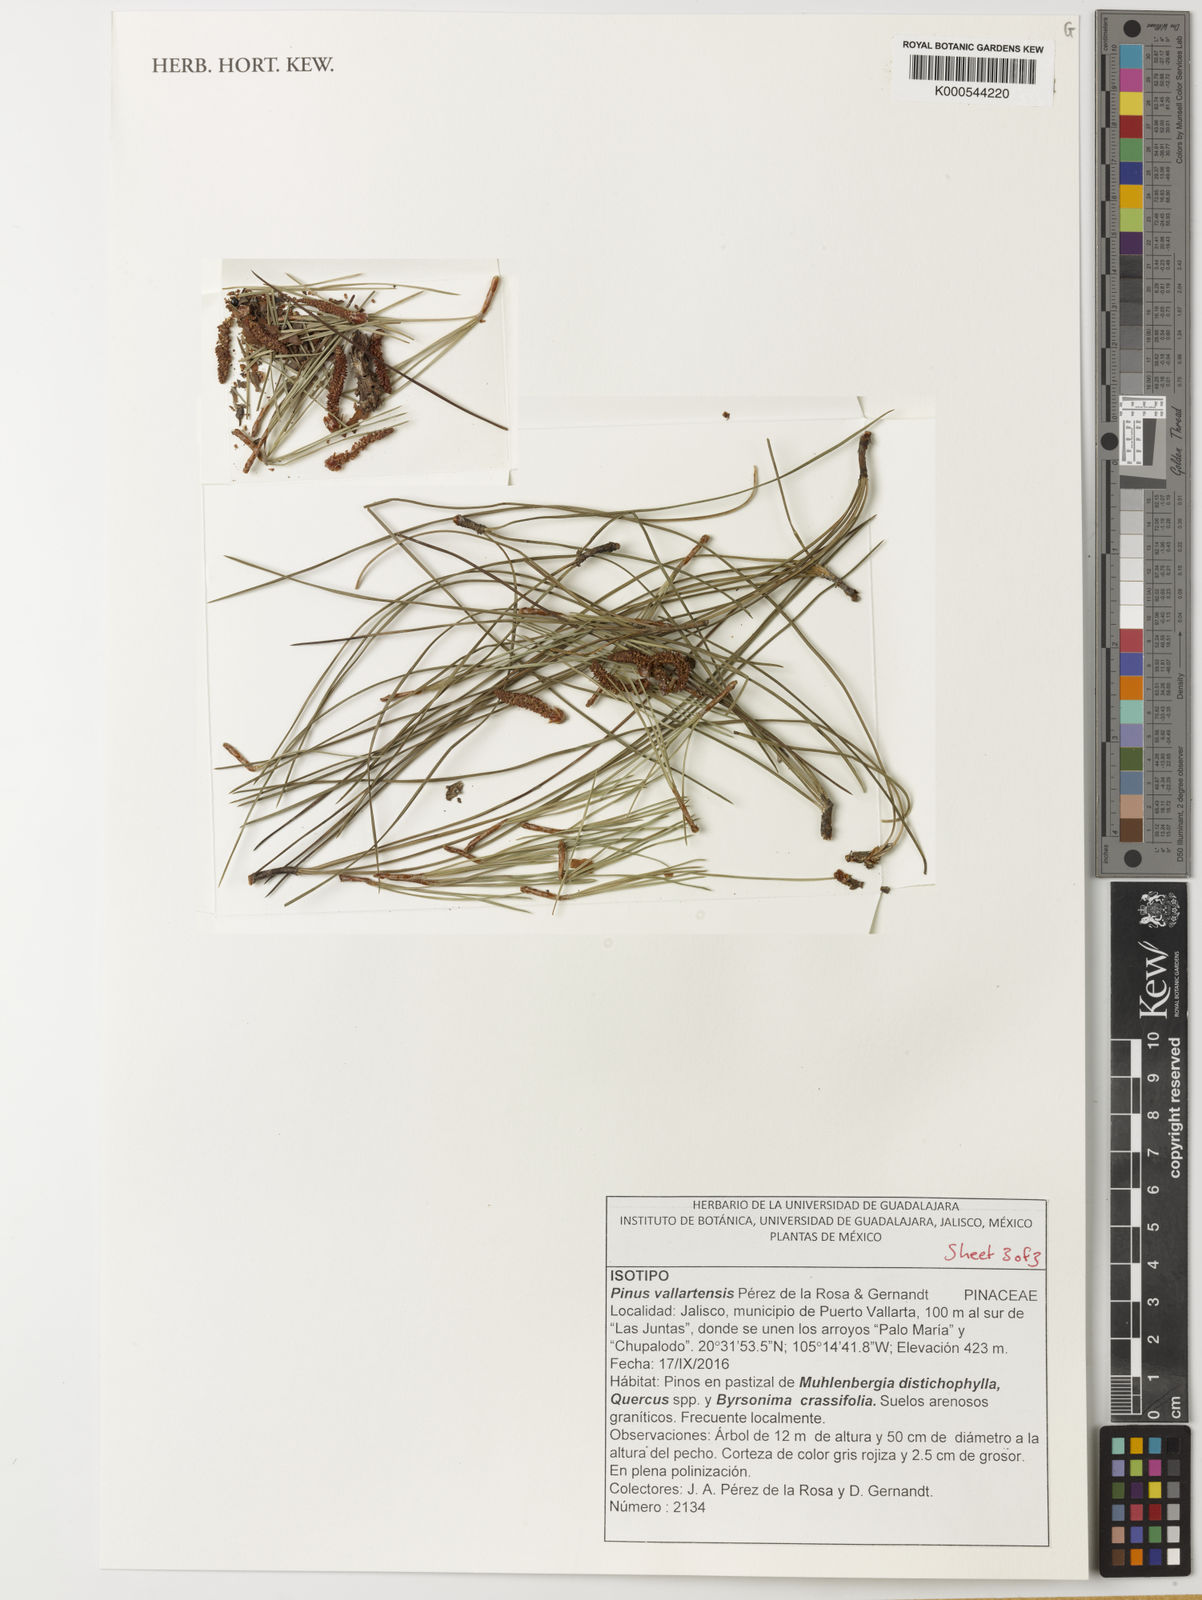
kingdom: Plantae
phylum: Tracheophyta
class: Pinopsida
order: Pinales
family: Pinaceae
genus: Pinus
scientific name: Pinus
